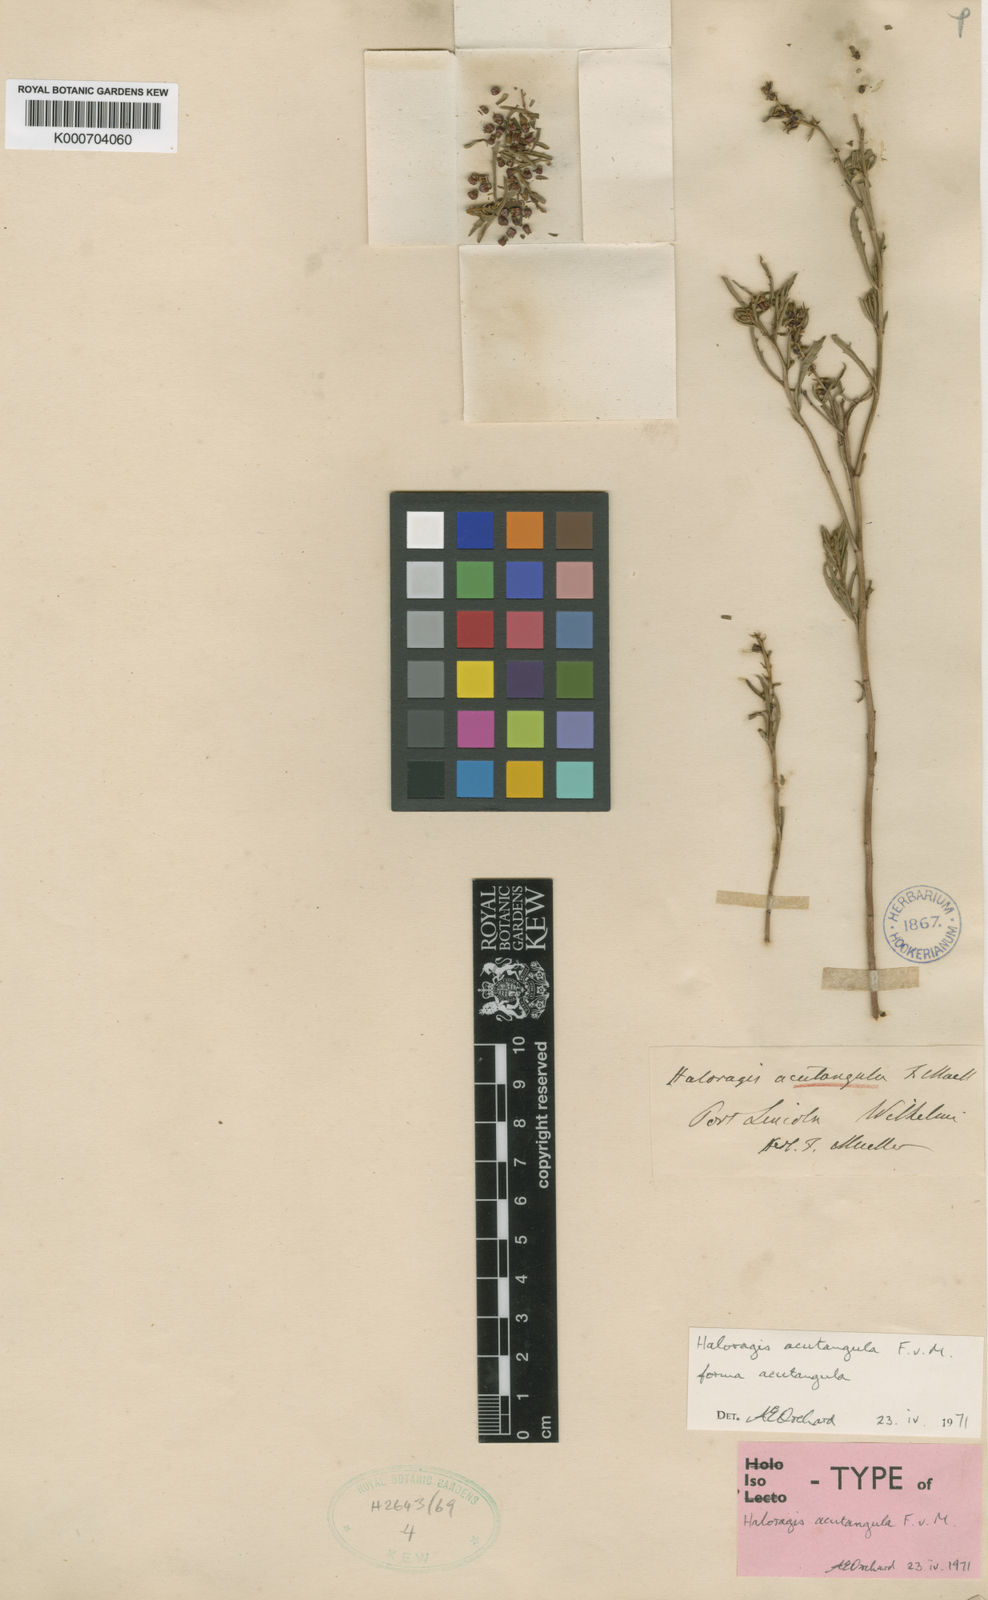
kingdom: Plantae
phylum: Tracheophyta
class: Magnoliopsida
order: Saxifragales
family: Haloragaceae
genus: Haloragis
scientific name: Haloragis acutangula
